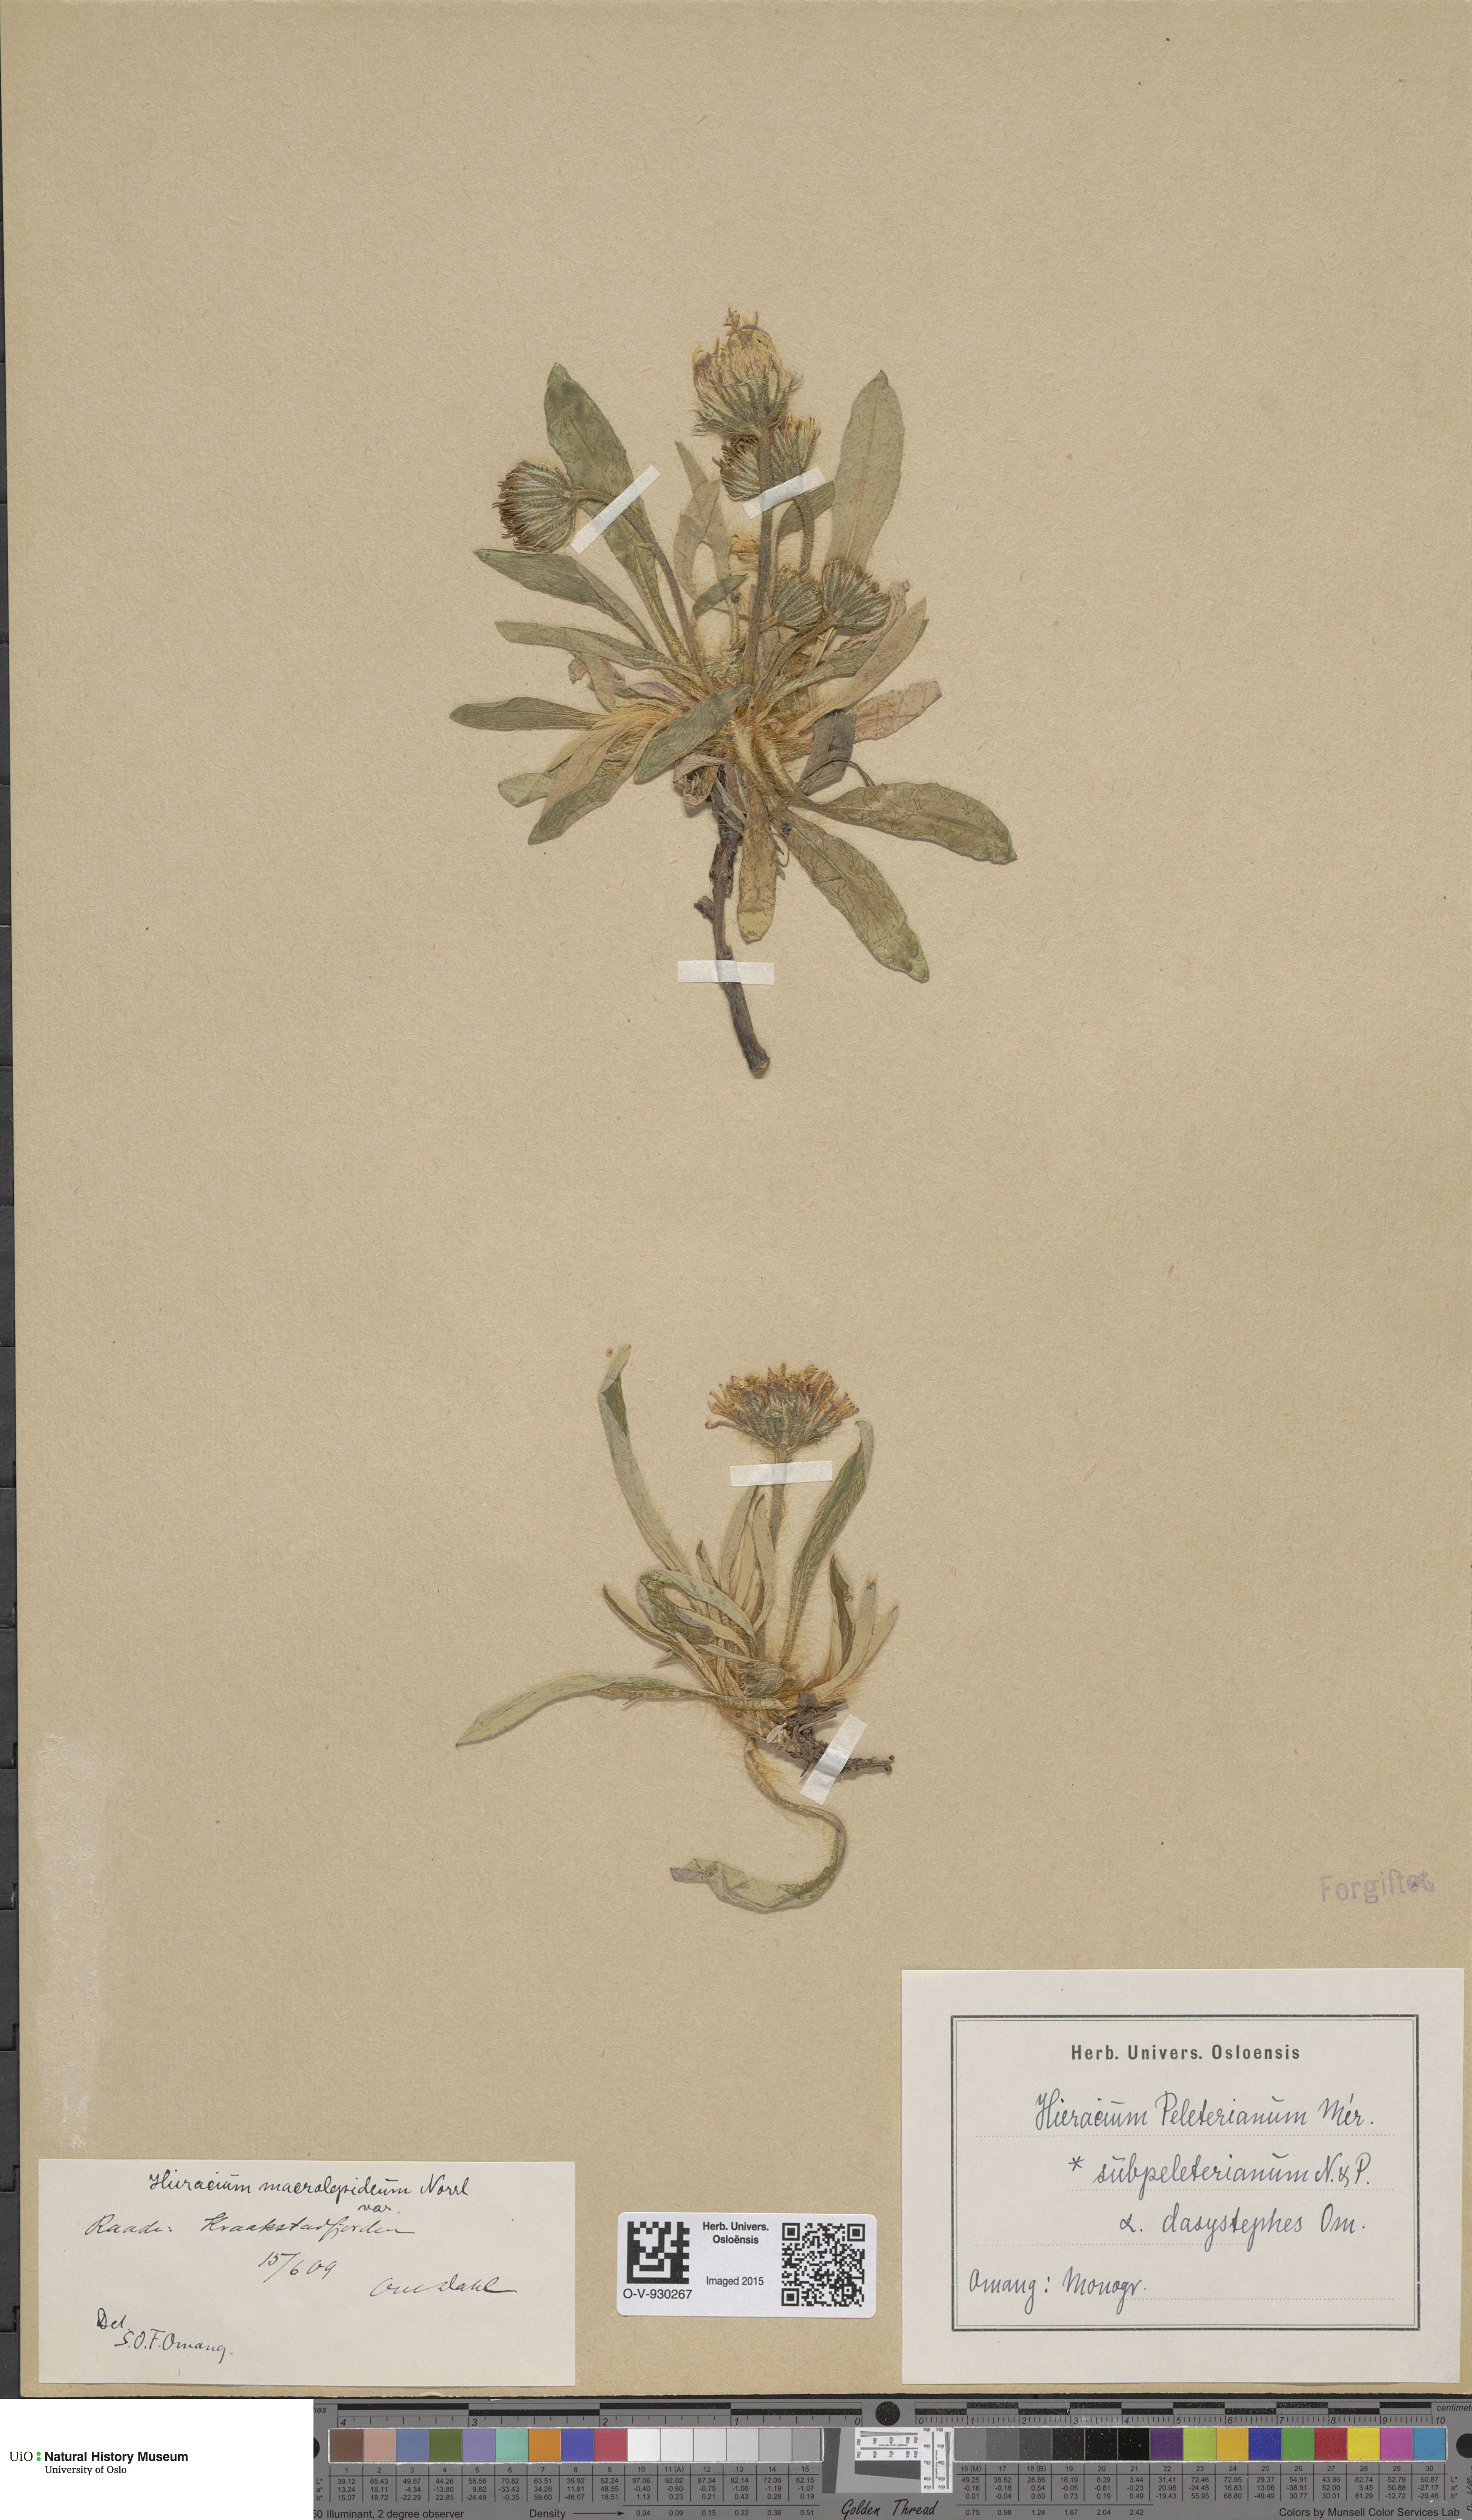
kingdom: Plantae
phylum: Tracheophyta
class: Magnoliopsida
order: Asterales
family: Asteraceae
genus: Pilosella
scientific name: Pilosella peleteriana
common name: Shaggy mouse-ear-hawkweed
